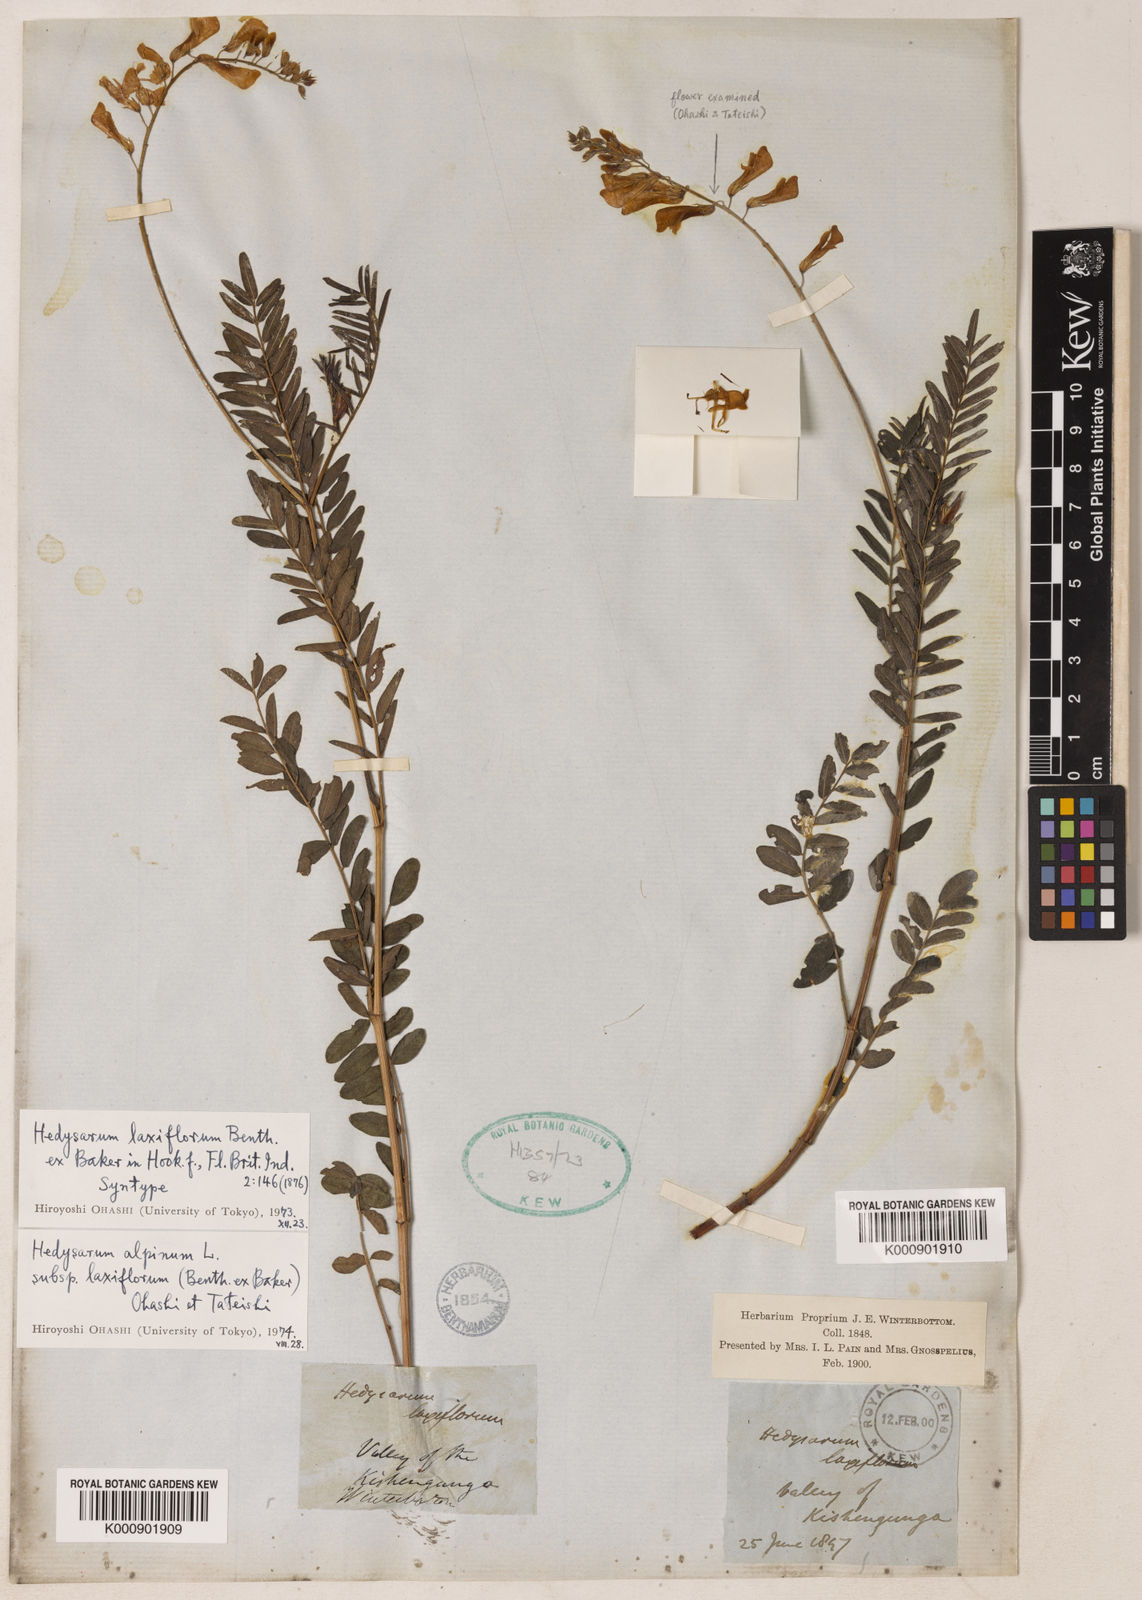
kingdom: Plantae
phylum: Tracheophyta
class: Magnoliopsida
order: Fabales
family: Fabaceae
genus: Hedysarum
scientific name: Hedysarum alpinum
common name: Alpine sweet-vetch
